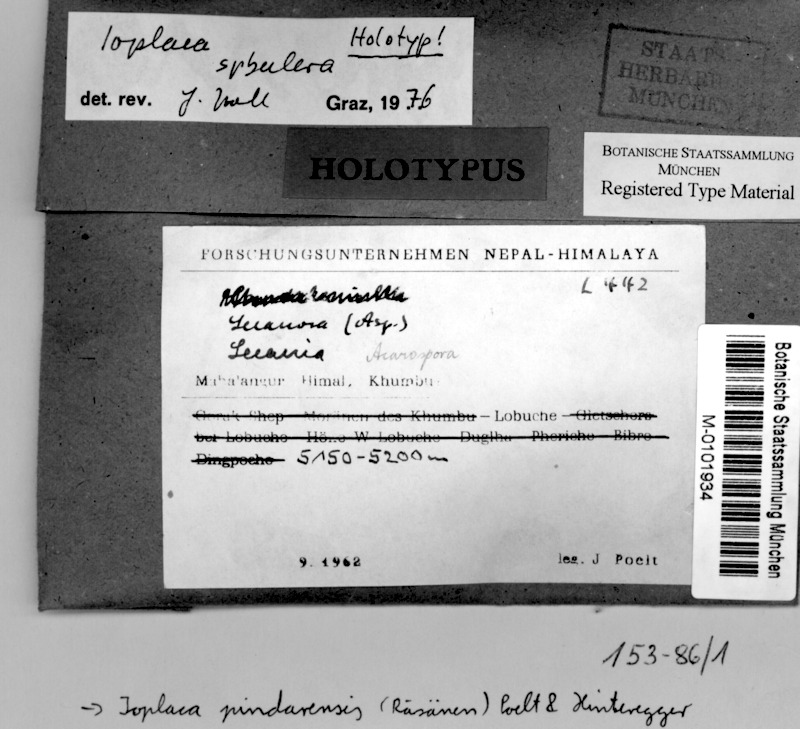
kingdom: Fungi
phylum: Ascomycota
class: Lecanoromycetes
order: Teloschistales
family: Teloschistaceae
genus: Ioplaca
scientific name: Ioplaca pindarensis
